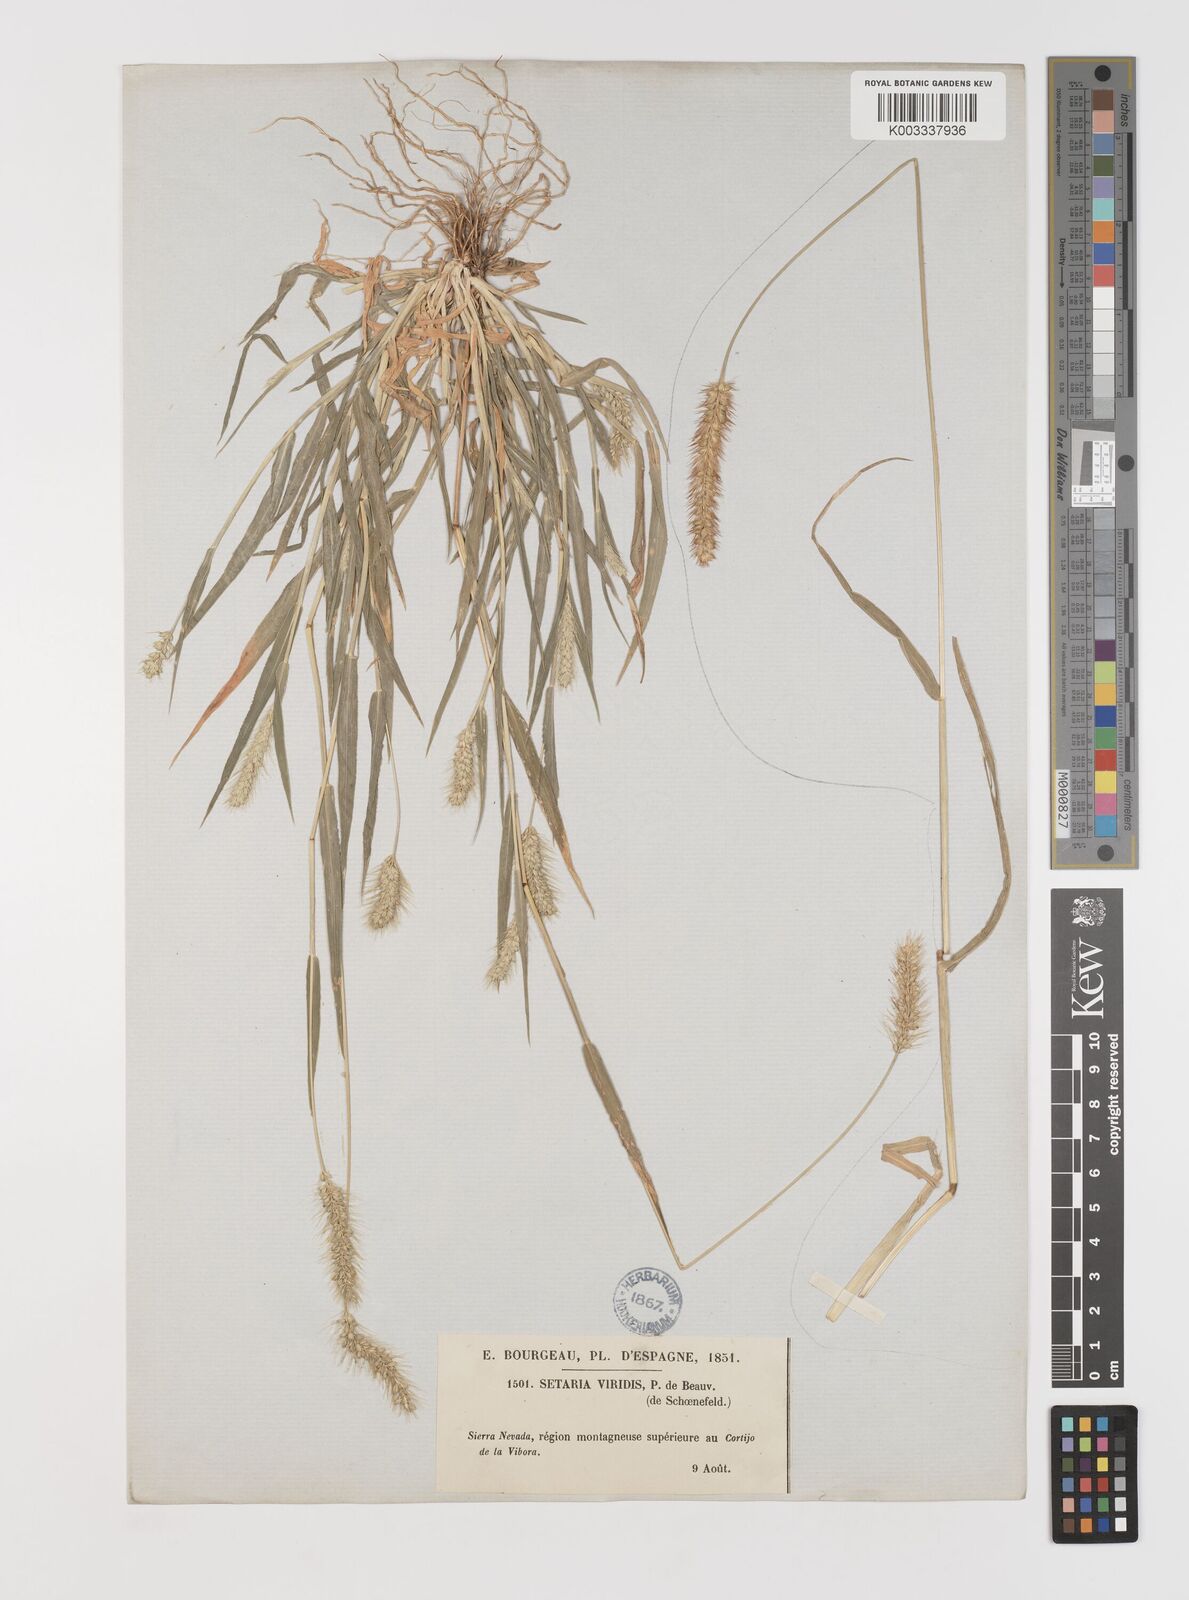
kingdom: Plantae
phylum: Tracheophyta
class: Liliopsida
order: Poales
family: Poaceae
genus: Setaria
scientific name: Setaria viridis
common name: Green bristlegrass
